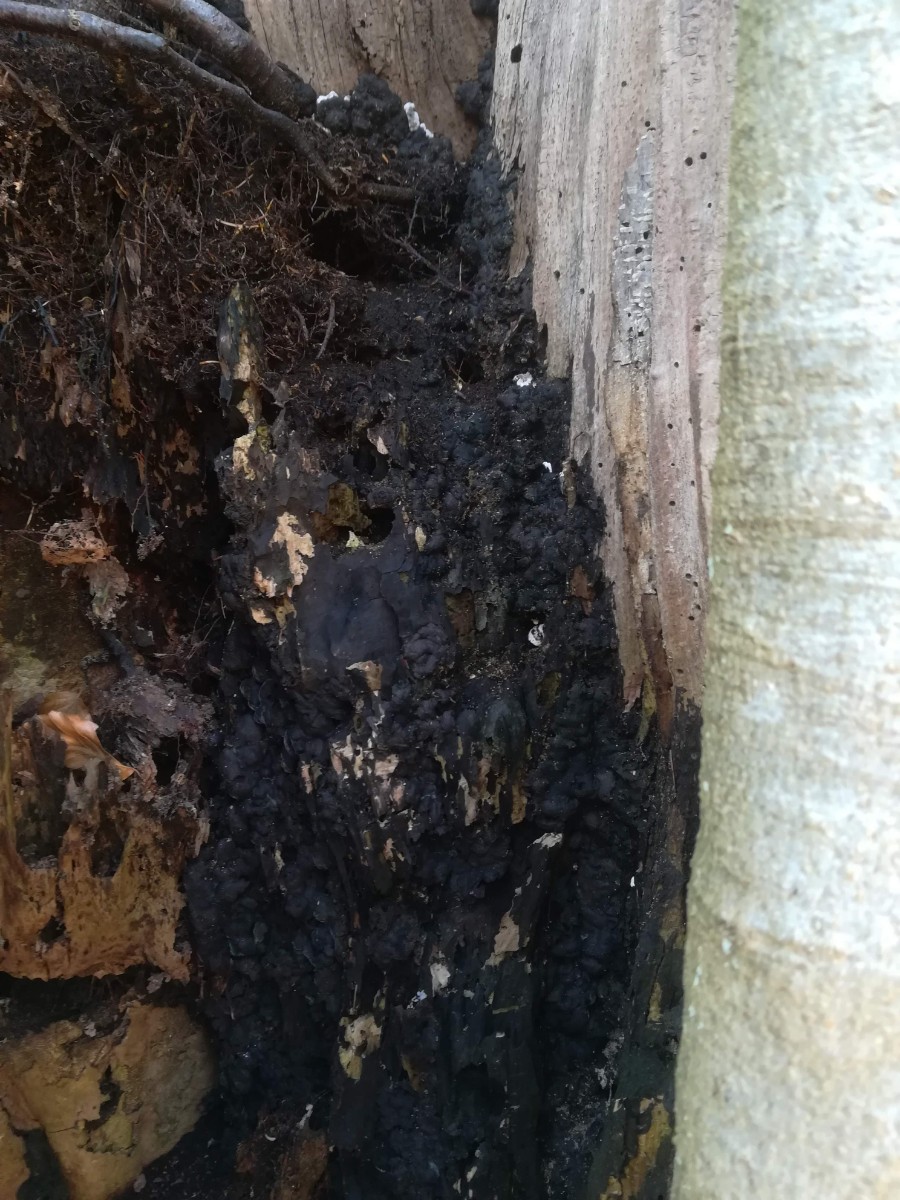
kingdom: Fungi
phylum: Ascomycota
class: Sordariomycetes
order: Xylariales
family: Xylariaceae
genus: Kretzschmaria
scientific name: Kretzschmaria deusta
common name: stor kulsvamp
